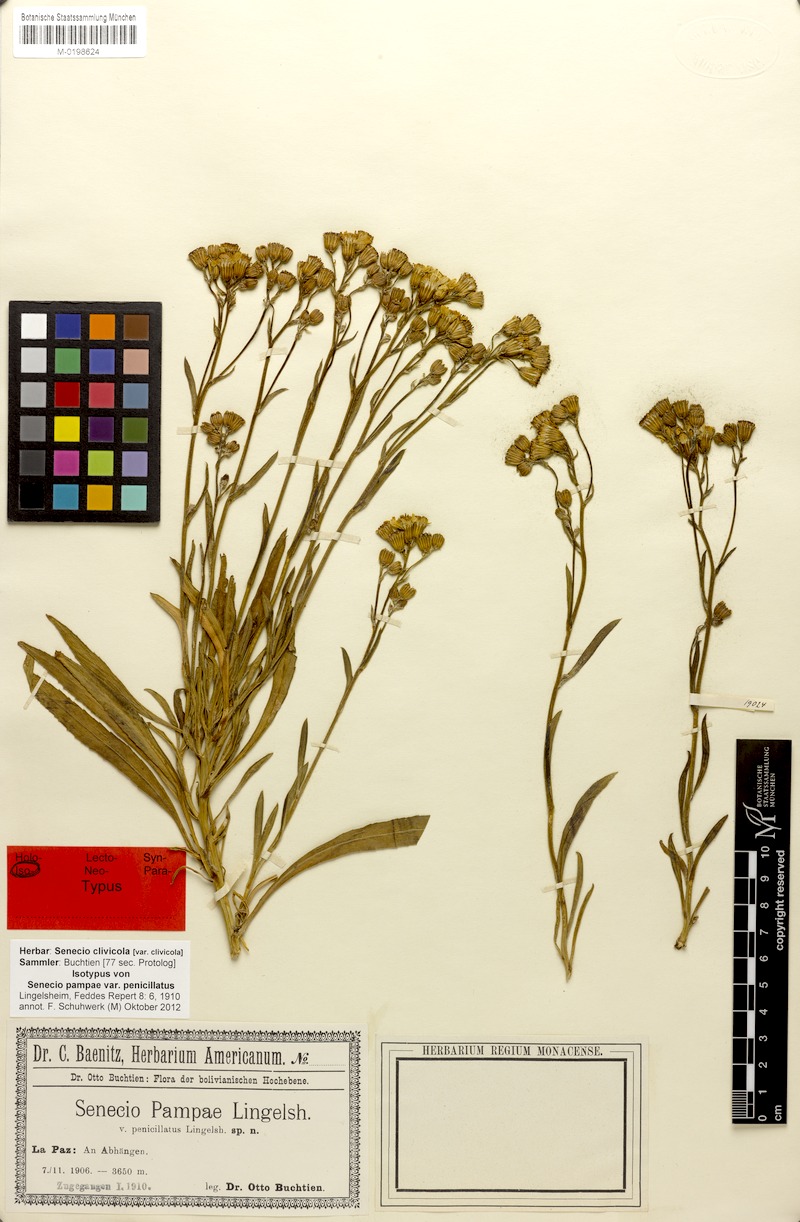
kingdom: Plantae
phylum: Tracheophyta
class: Magnoliopsida
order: Asterales
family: Asteraceae
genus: Senecio
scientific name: Senecio clivicola
